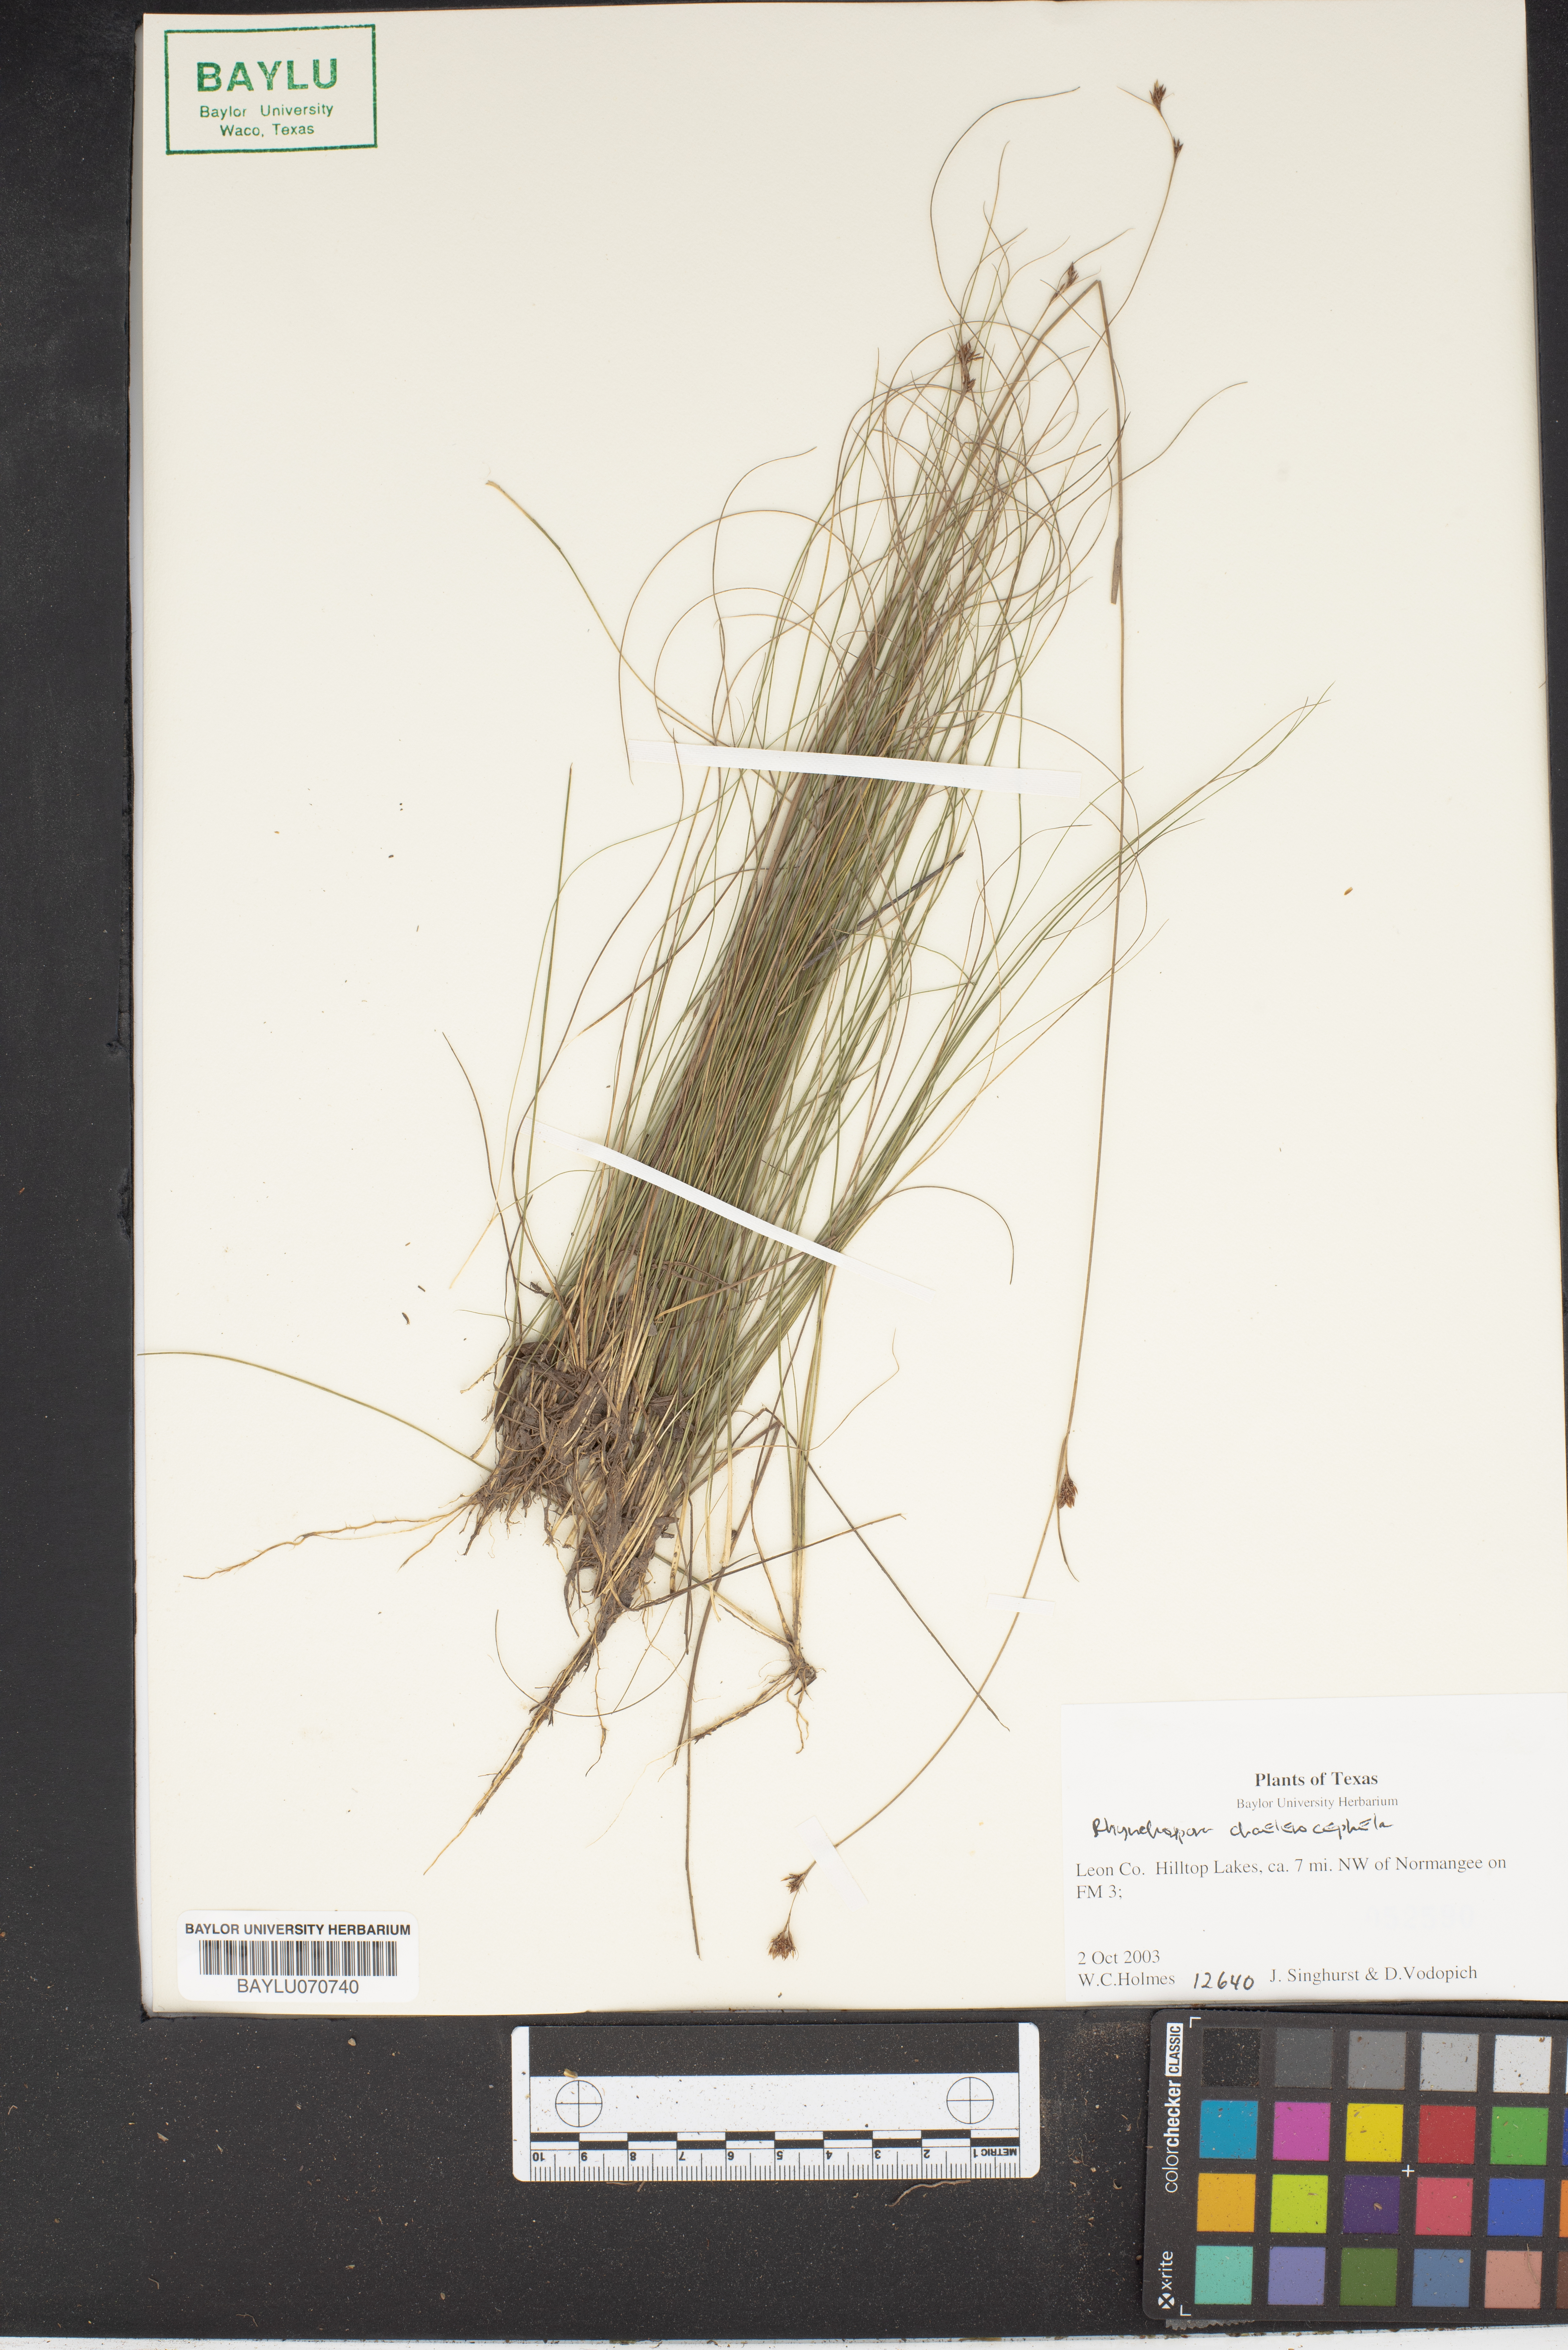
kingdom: Plantae
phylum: Tracheophyta
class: Liliopsida
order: Poales
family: Cyperaceae
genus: Rhynchospora
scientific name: Rhynchospora chalarocephala
